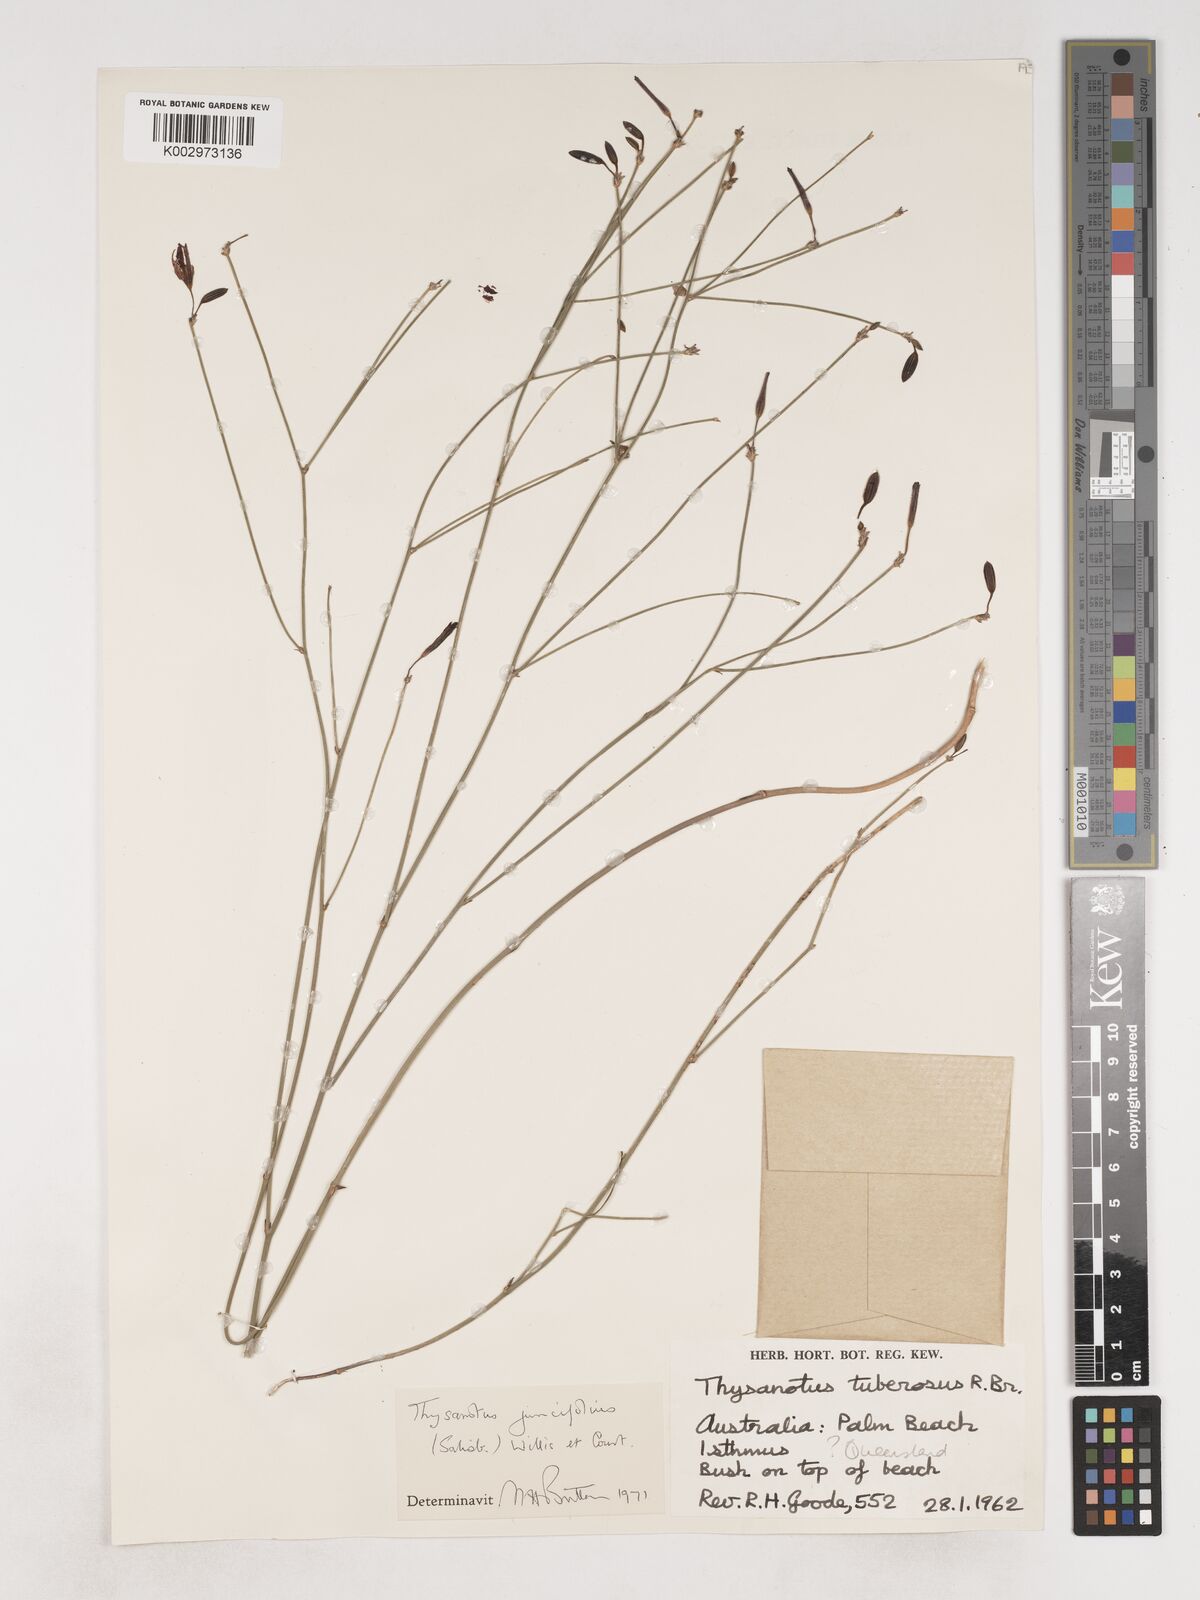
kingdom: Plantae
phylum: Tracheophyta
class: Liliopsida
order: Asparagales
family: Asparagaceae
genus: Thysanotus
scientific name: Thysanotus juncifolius
